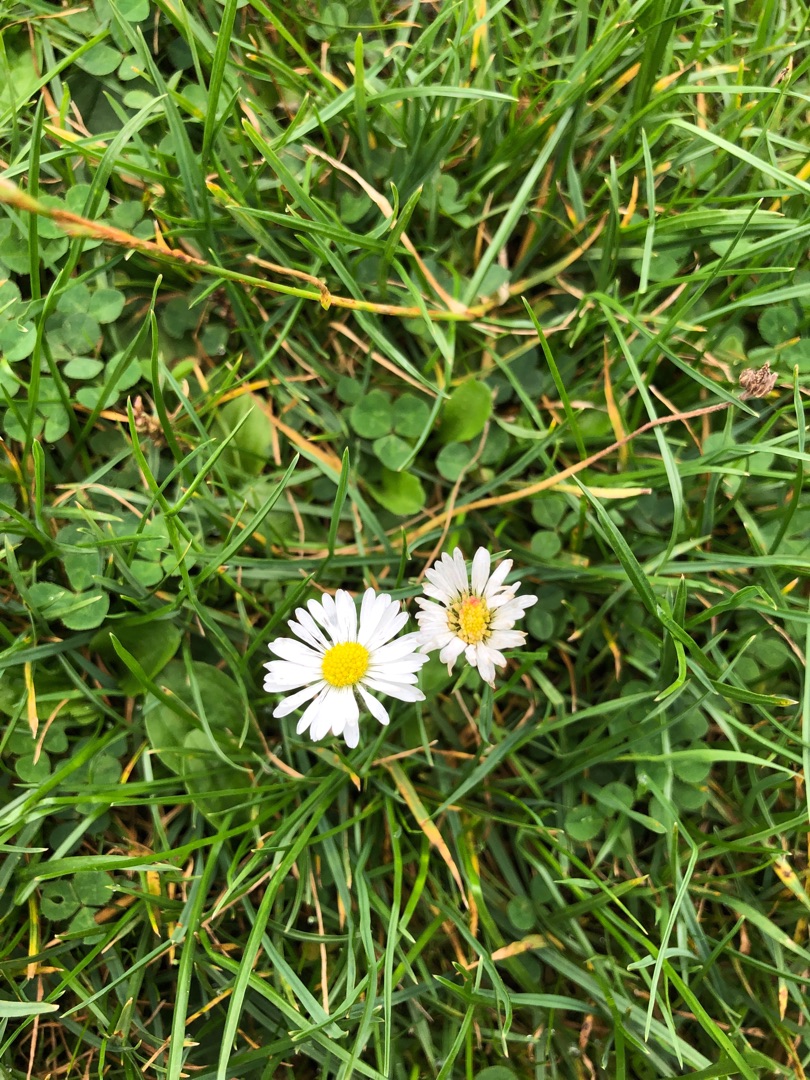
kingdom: Plantae
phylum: Tracheophyta
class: Magnoliopsida
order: Asterales
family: Asteraceae
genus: Bellis
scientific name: Bellis perennis
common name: Tusindfryd
